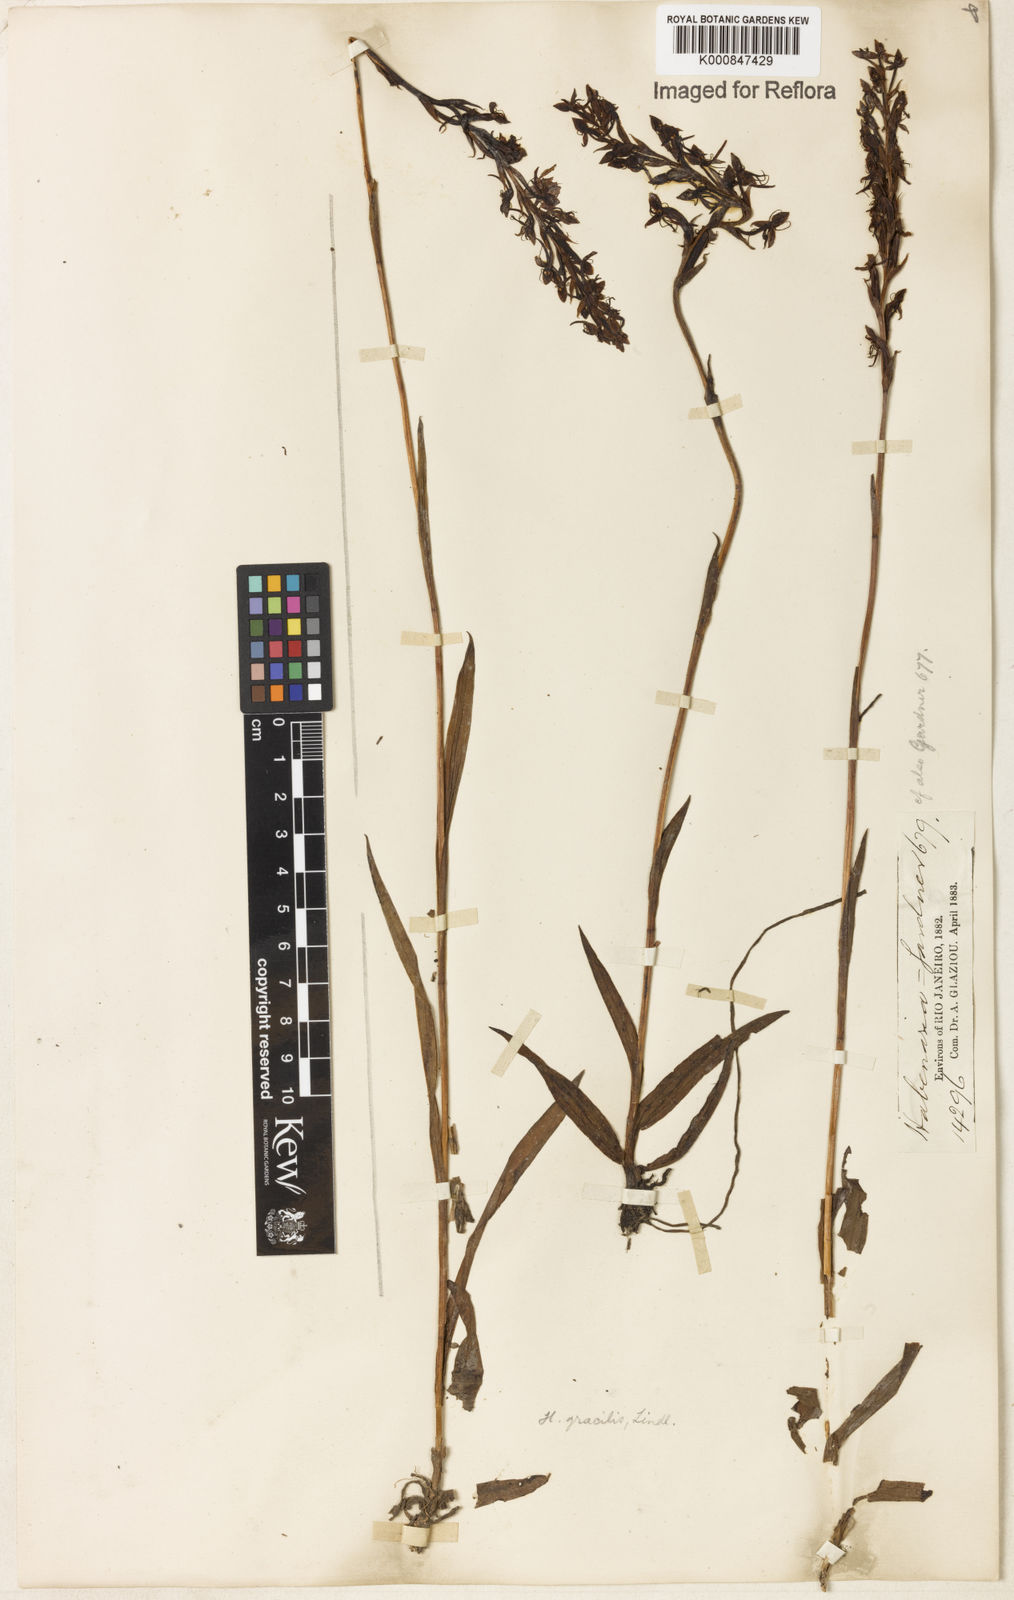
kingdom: Plantae
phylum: Tracheophyta
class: Liliopsida
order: Asparagales
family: Orchidaceae
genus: Habenaria
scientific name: Habenaria gracilis
